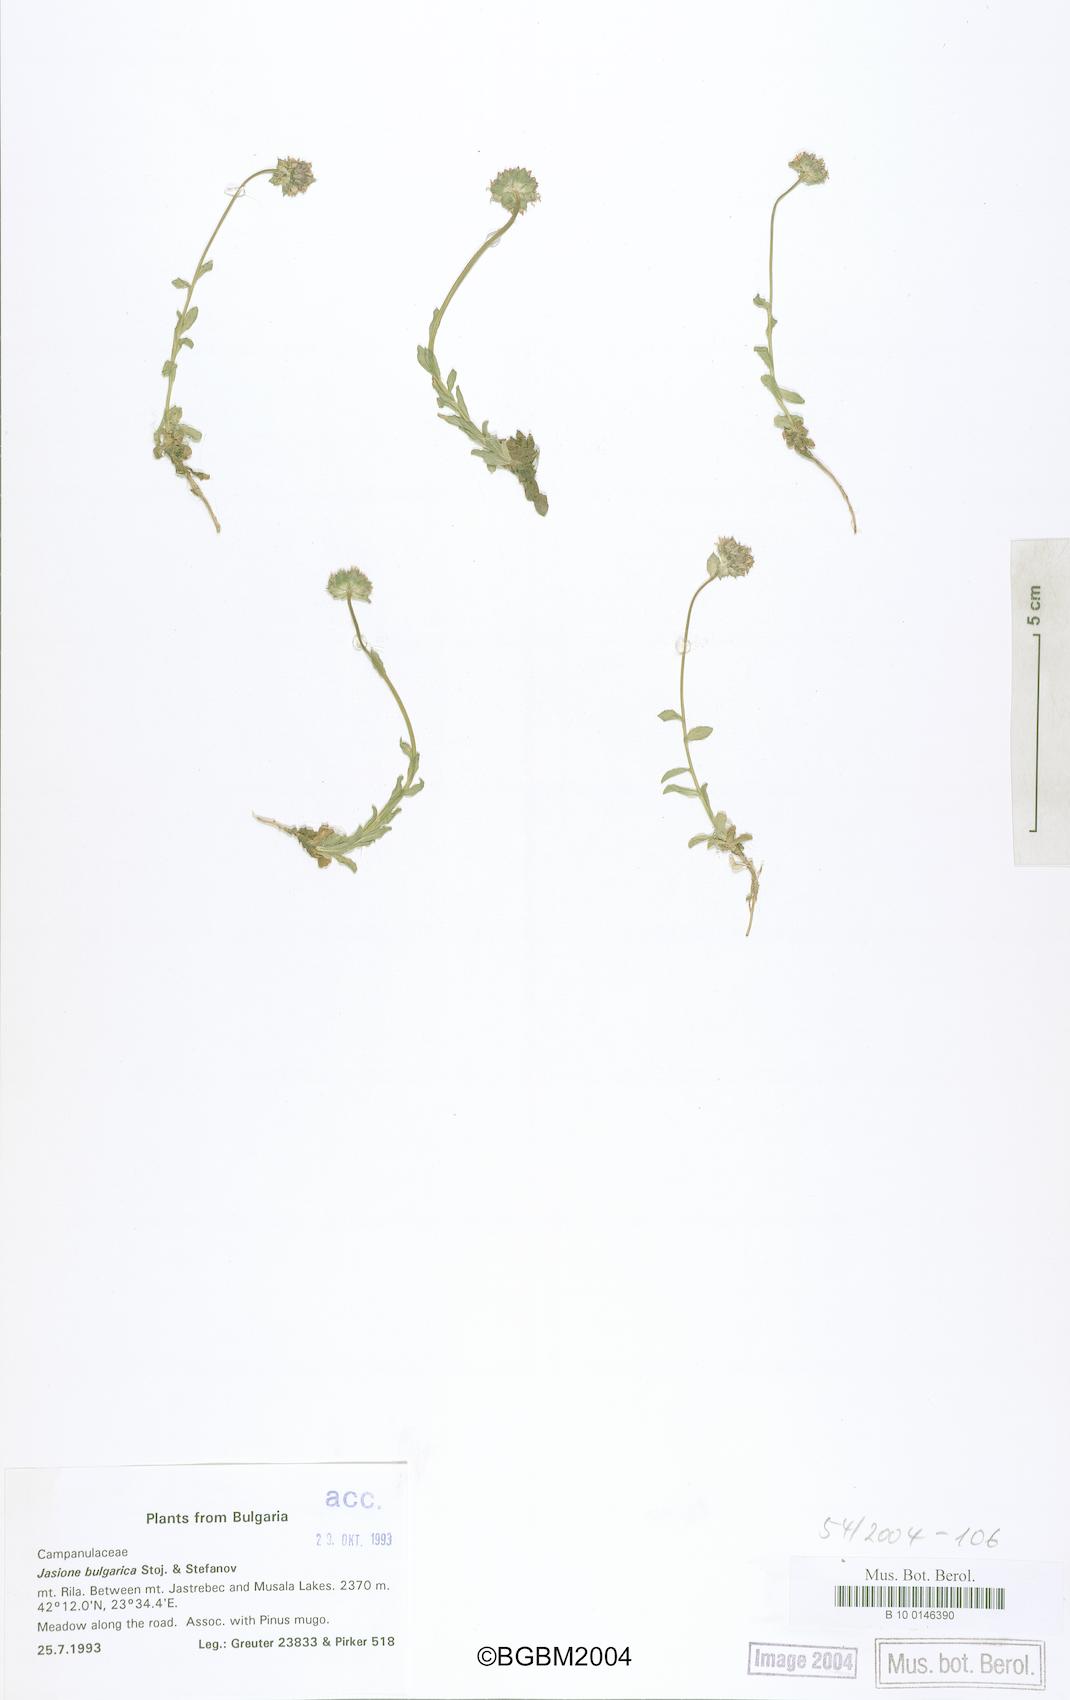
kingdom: Plantae
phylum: Tracheophyta
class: Magnoliopsida
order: Asterales
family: Campanulaceae
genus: Jasione
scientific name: Jasione bulgarica
